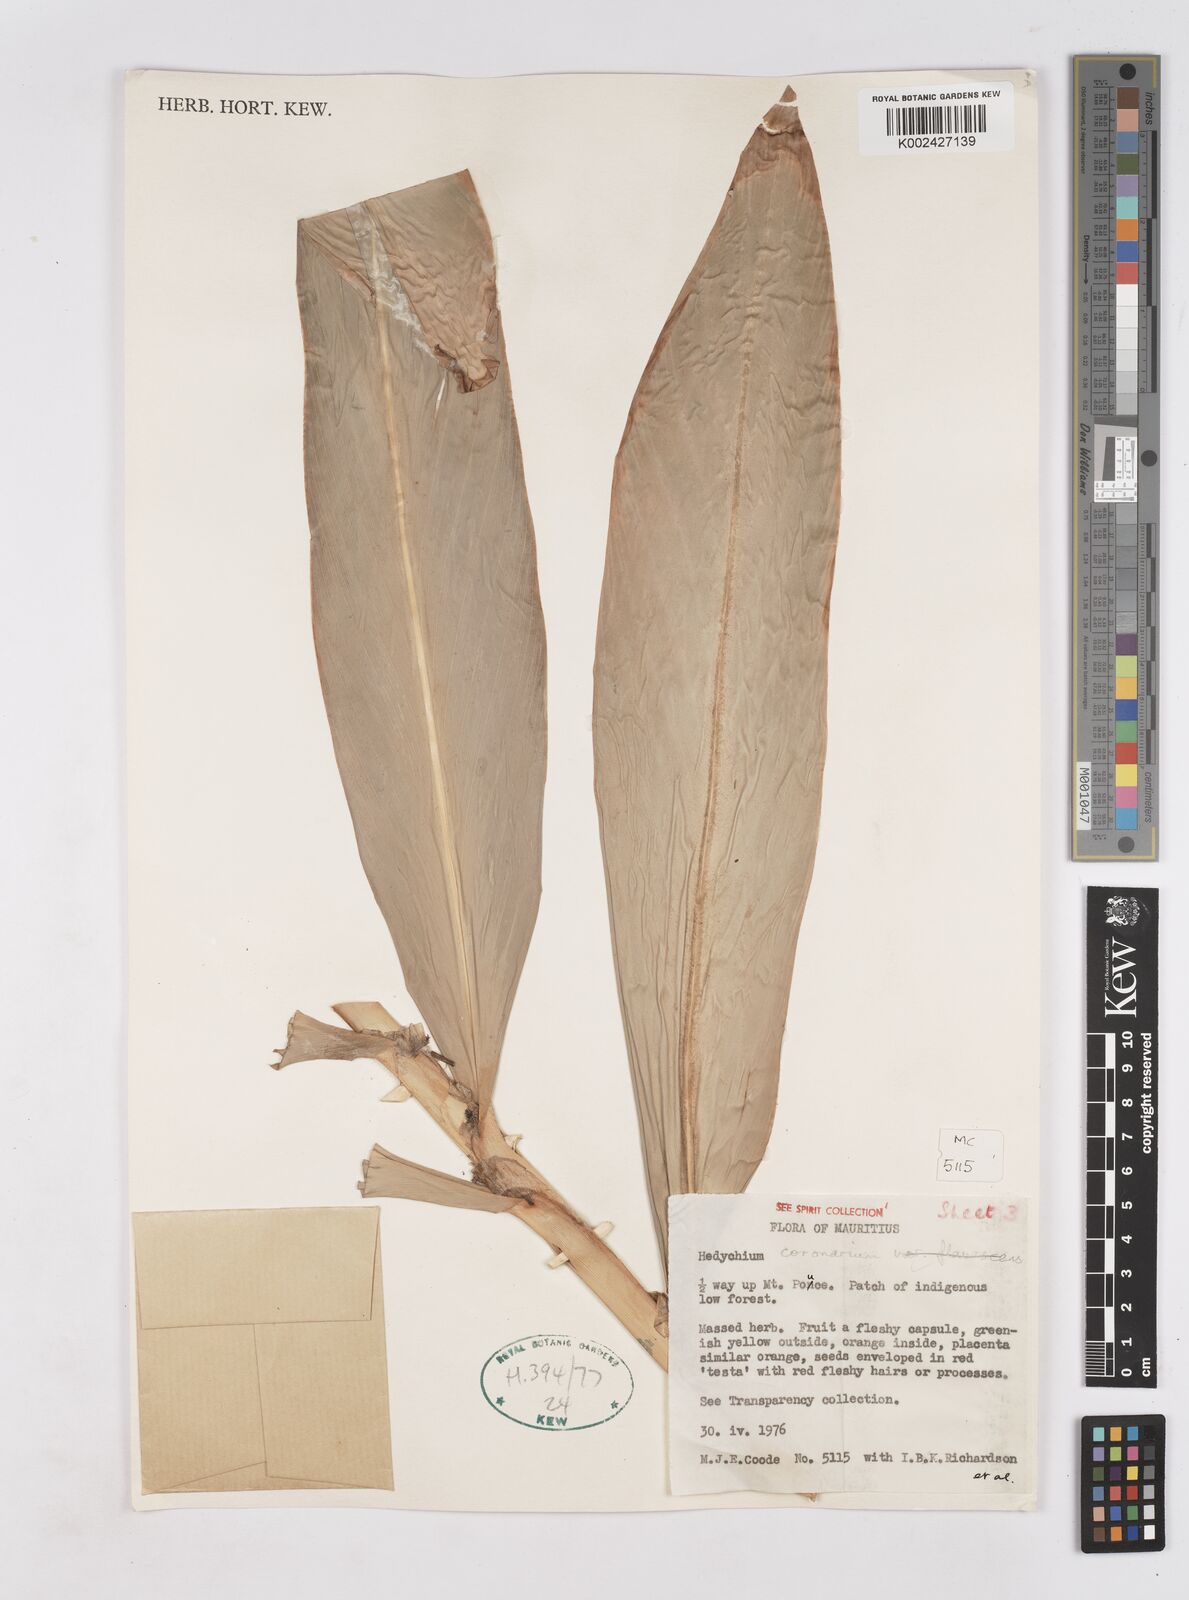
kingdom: Plantae
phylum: Tracheophyta
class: Liliopsida
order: Zingiberales
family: Zingiberaceae
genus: Hedychium
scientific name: Hedychium coronarium
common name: White garland-lily
